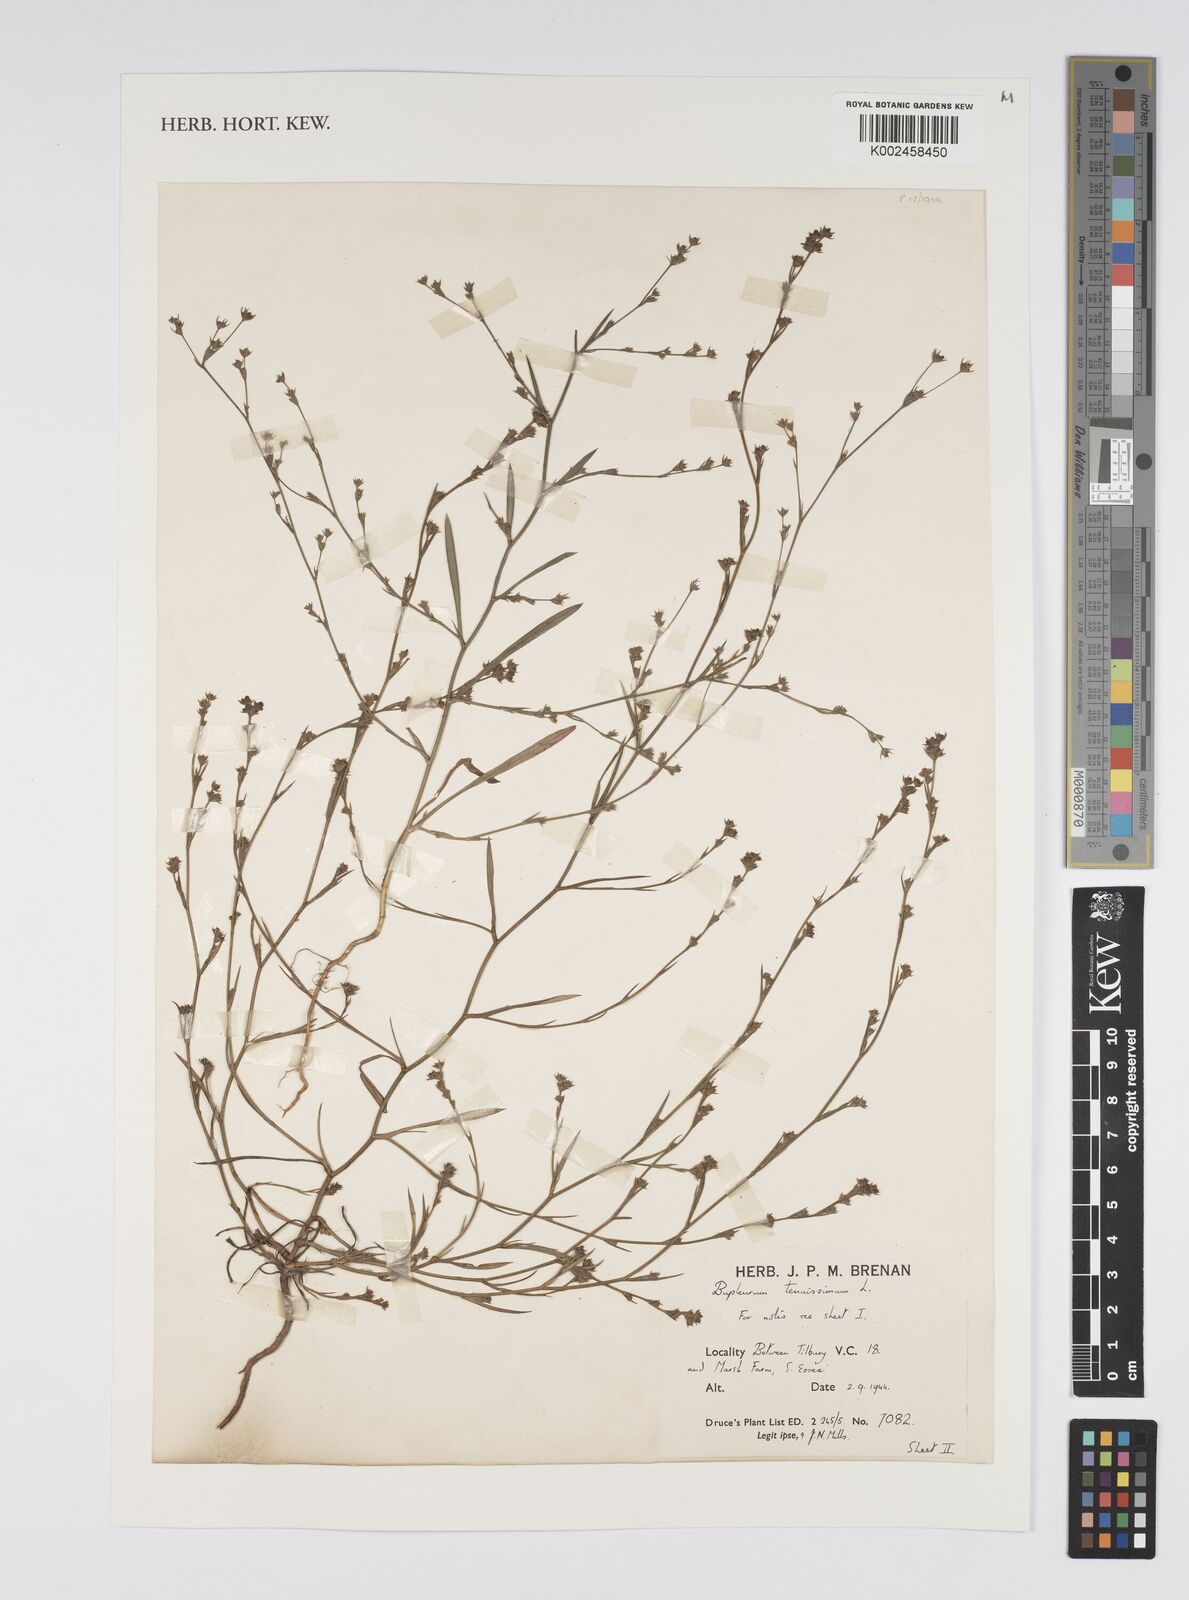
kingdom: Plantae
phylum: Tracheophyta
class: Magnoliopsida
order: Apiales
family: Apiaceae
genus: Bupleurum
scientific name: Bupleurum tenuissimum
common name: Slender hare's-ear
